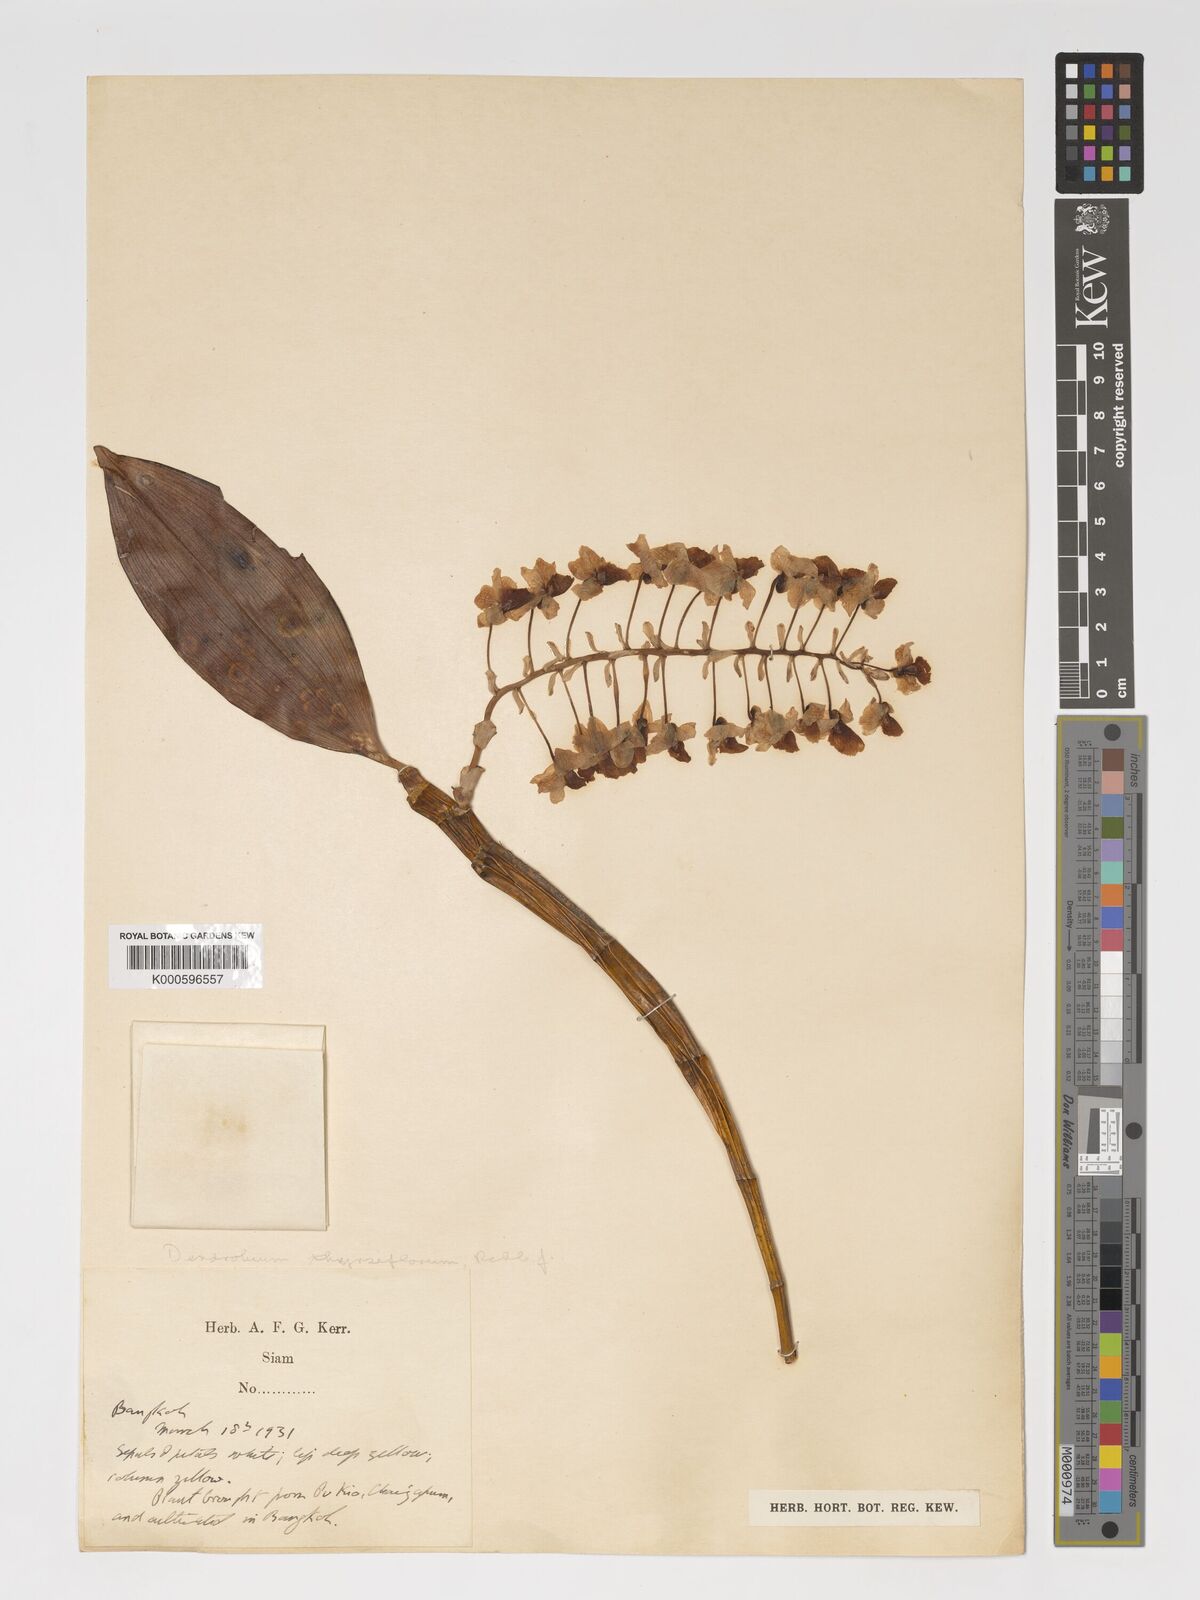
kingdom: Plantae
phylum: Tracheophyta
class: Liliopsida
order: Asparagales
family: Orchidaceae
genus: Dendrobium
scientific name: Dendrobium
